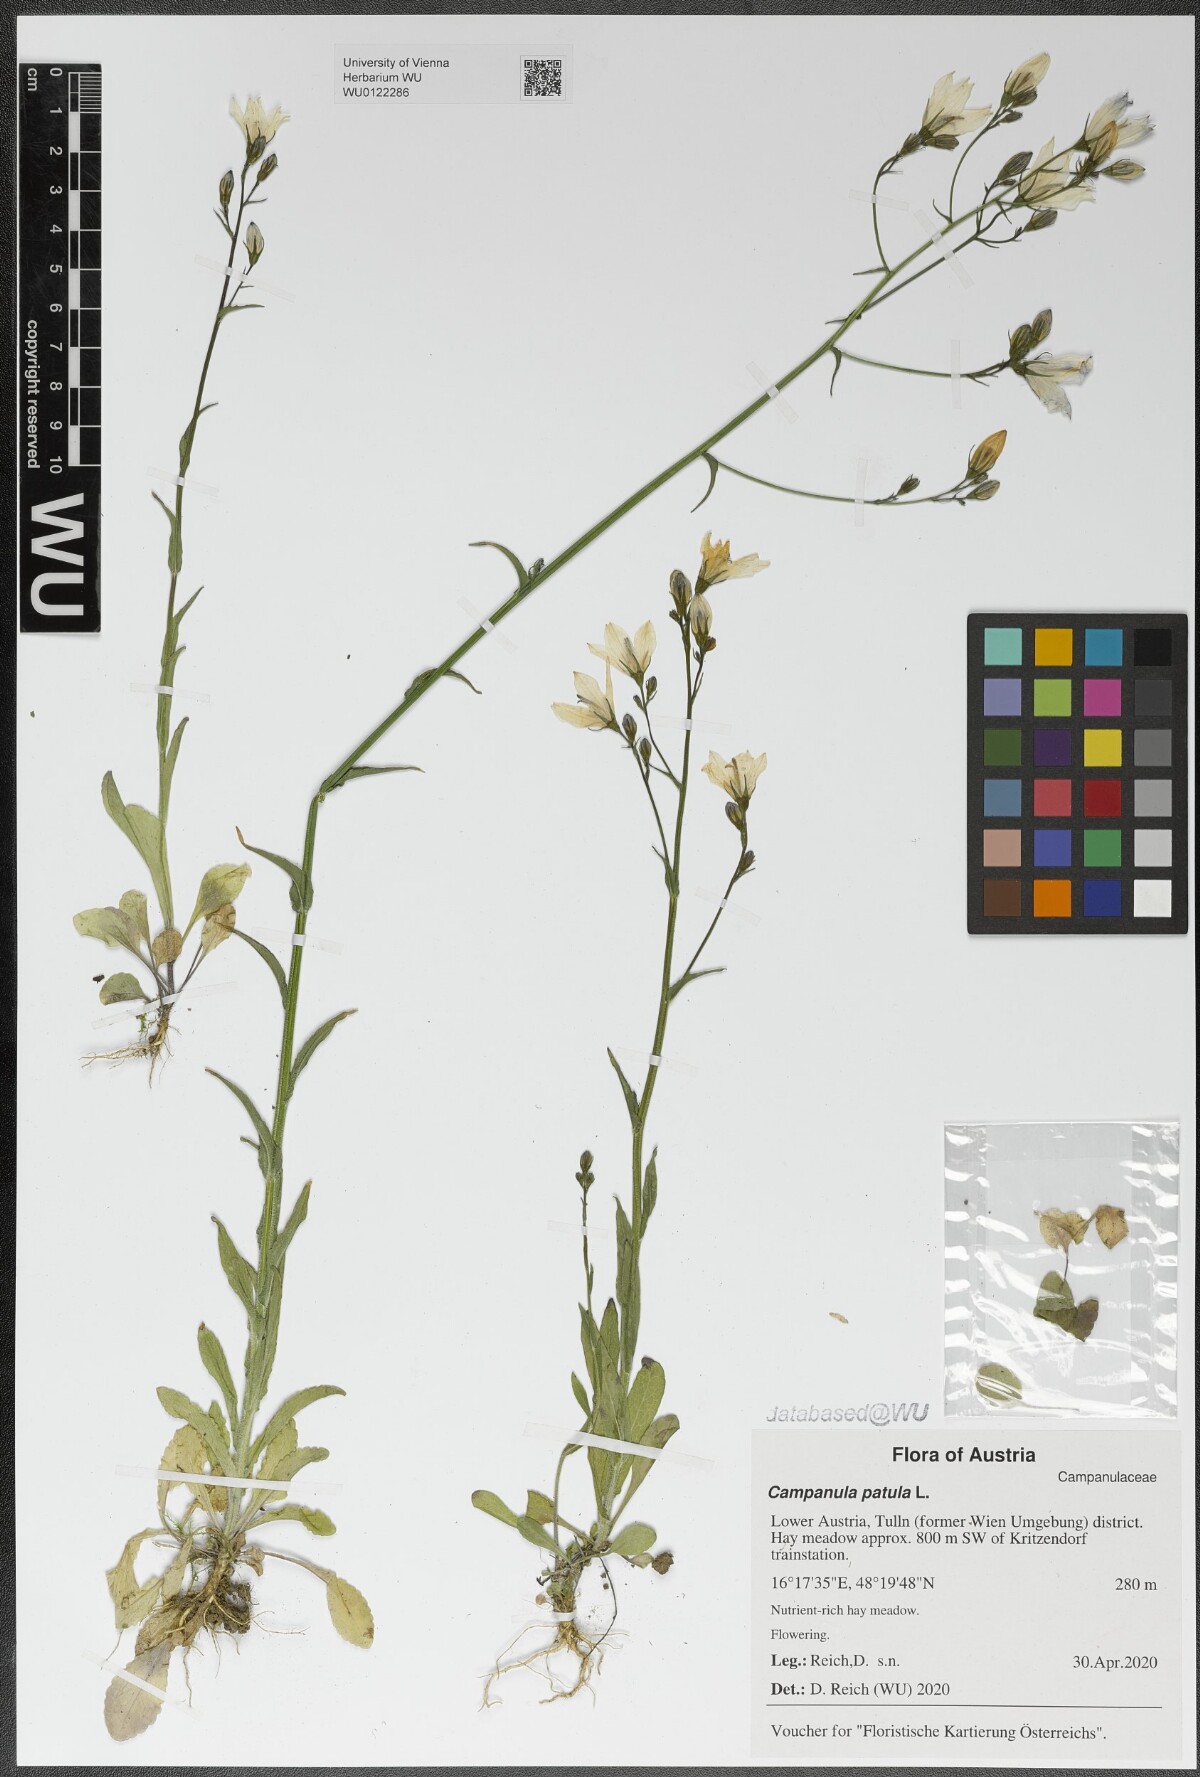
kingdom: Plantae
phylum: Tracheophyta
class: Magnoliopsida
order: Asterales
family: Campanulaceae
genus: Campanula
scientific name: Campanula patula
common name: Spreading bellflower
